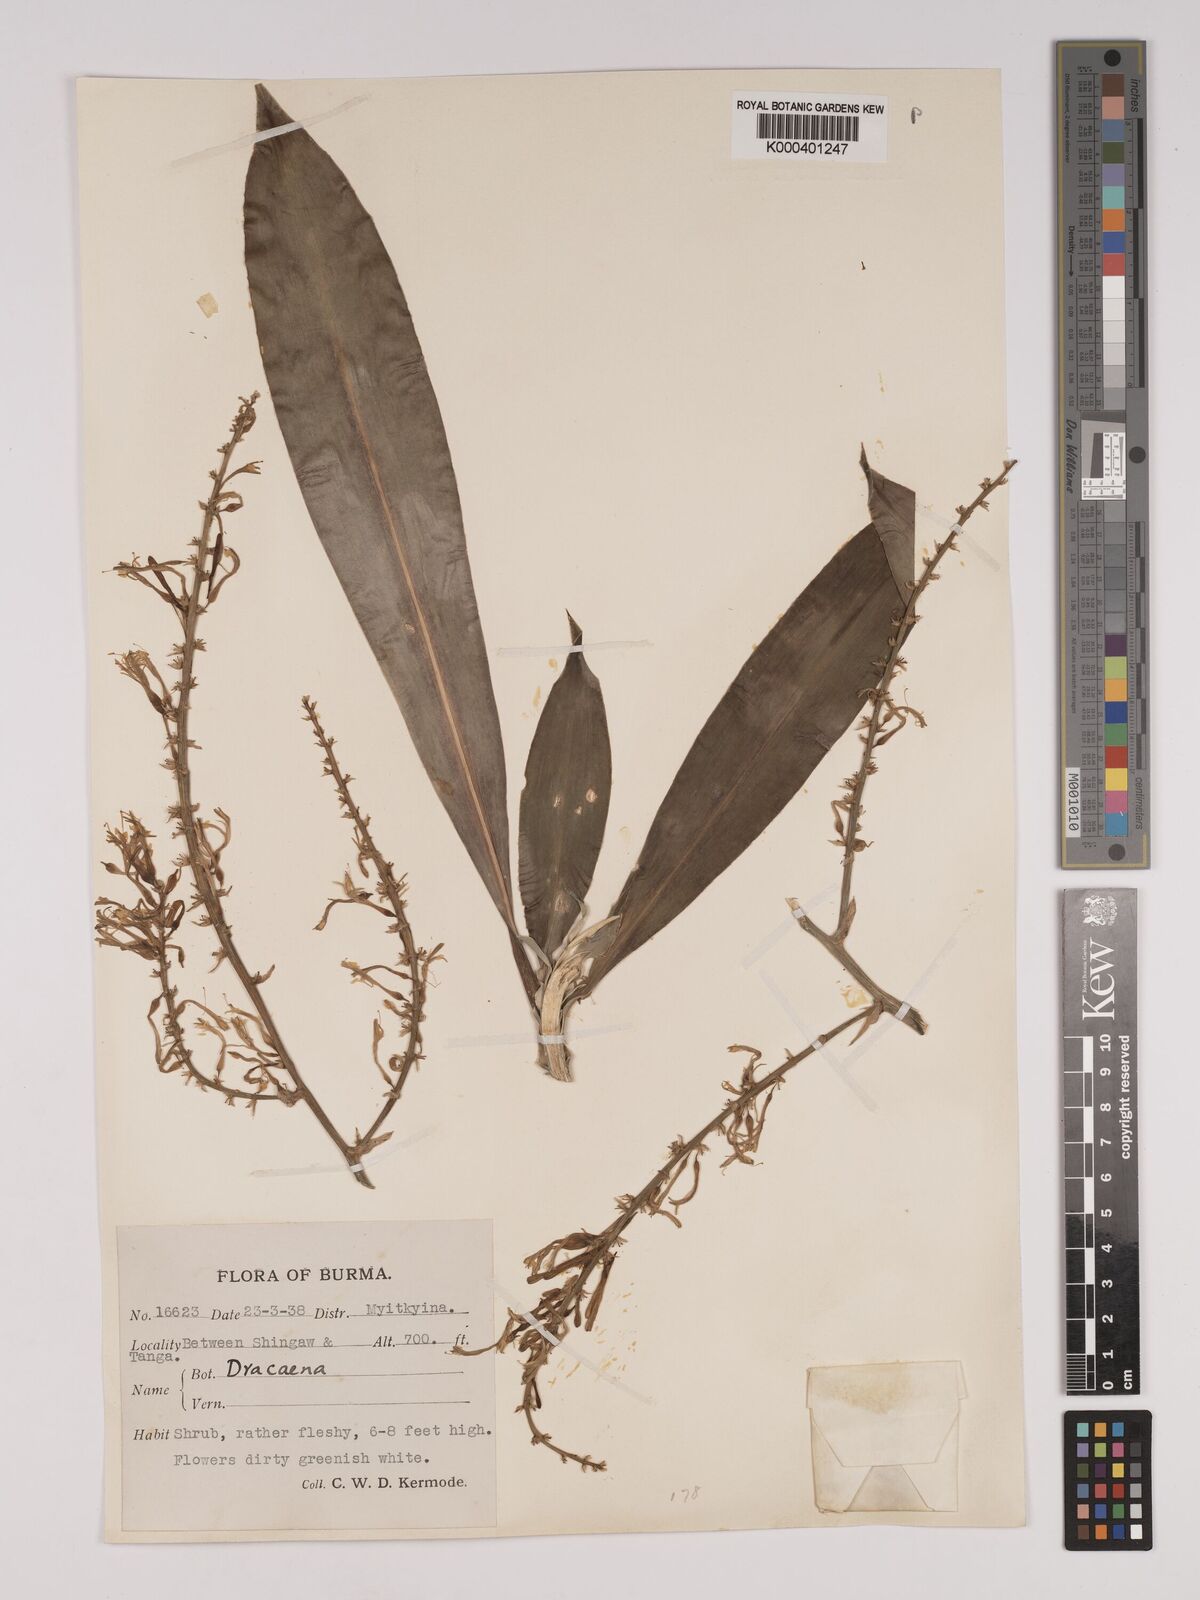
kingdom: Plantae
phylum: Tracheophyta
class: Liliopsida
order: Asparagales
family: Asparagaceae
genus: Dracaena
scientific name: Dracaena griffithii
